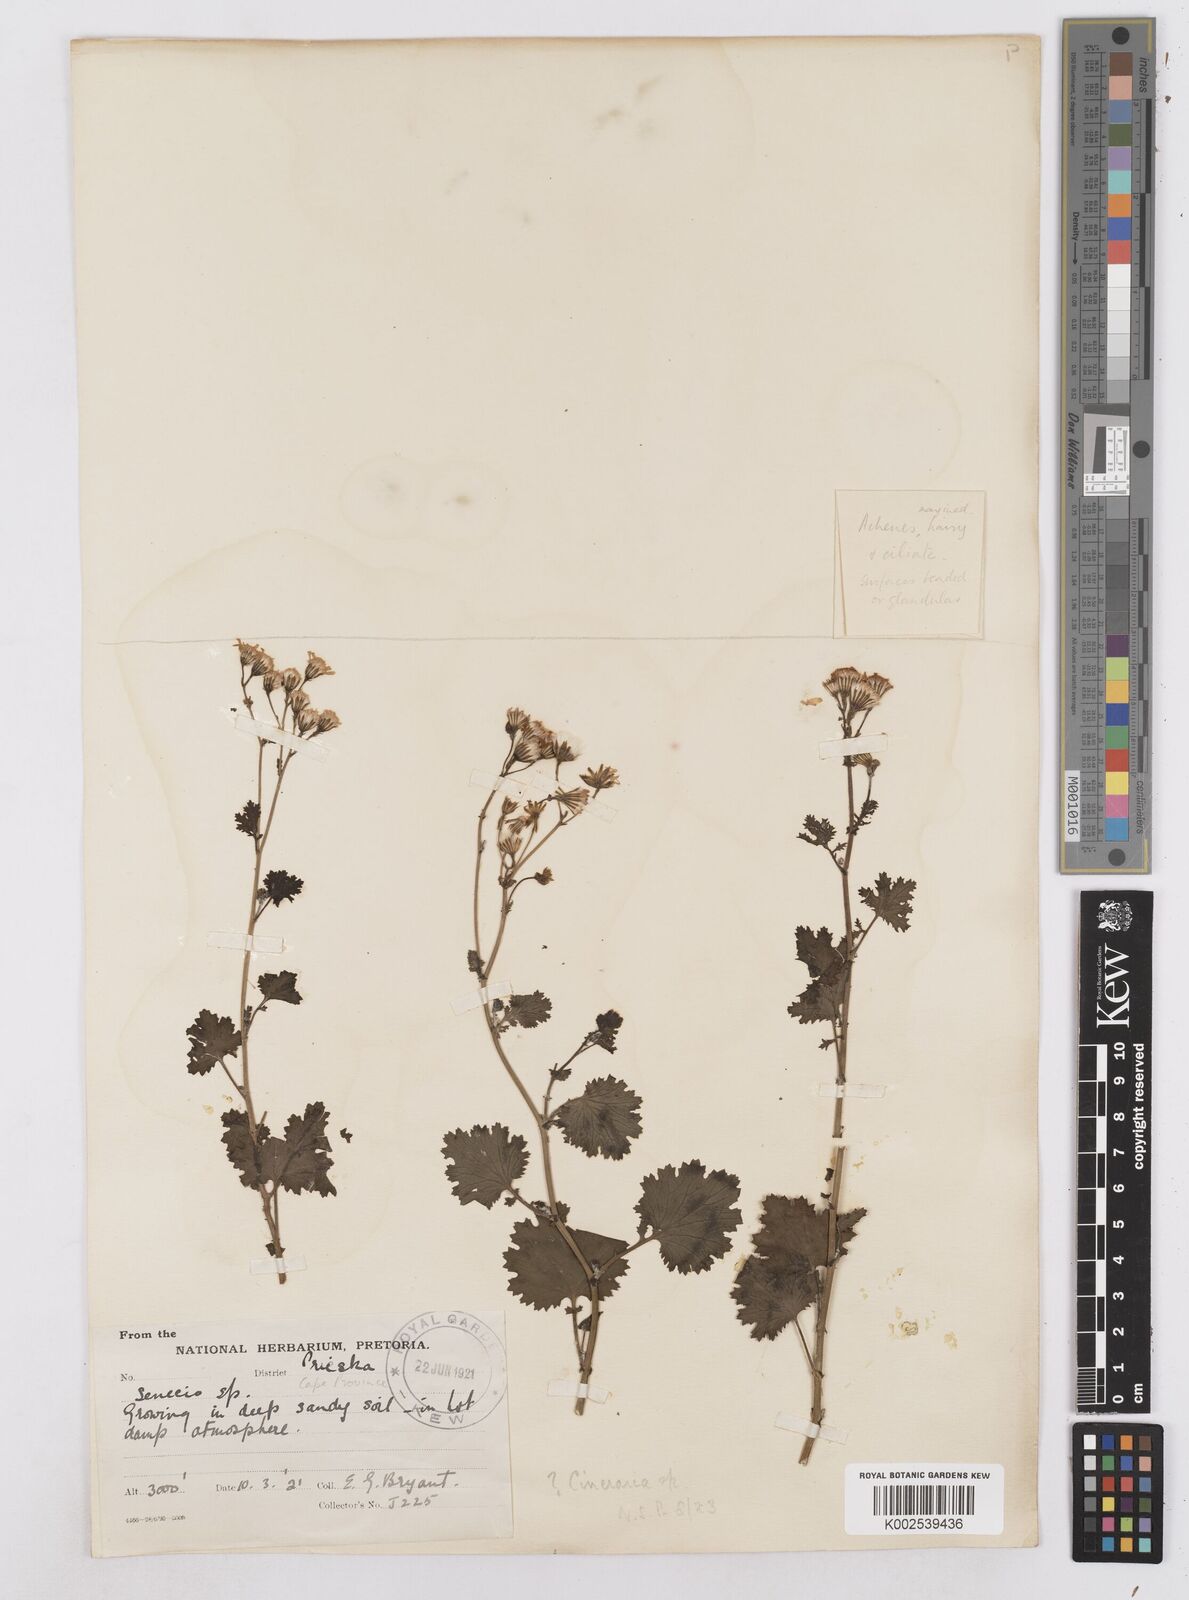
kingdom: Plantae
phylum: Tracheophyta
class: Magnoliopsida
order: Asterales
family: Asteraceae
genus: Cineraria
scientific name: Cineraria
